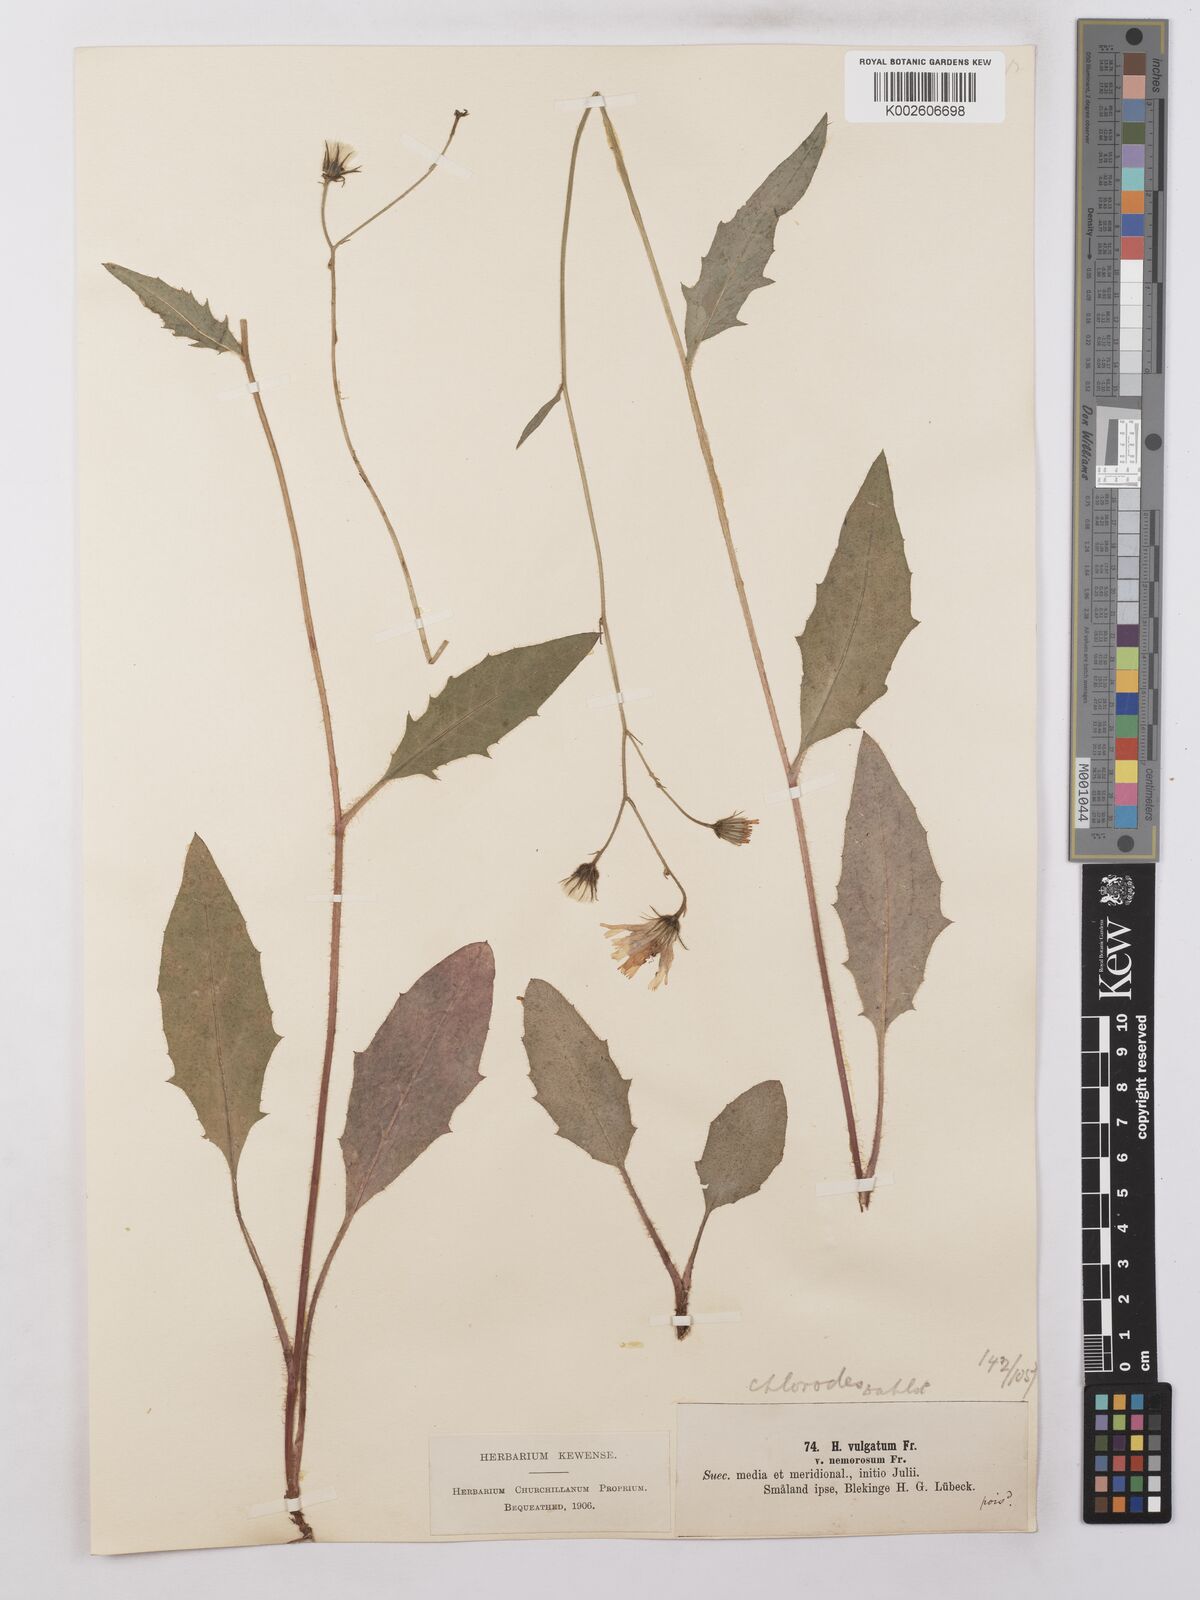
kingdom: Plantae
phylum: Tracheophyta
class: Magnoliopsida
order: Asterales
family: Asteraceae
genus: Hieracium
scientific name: Hieracium lachenalii
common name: Common hawkweed
